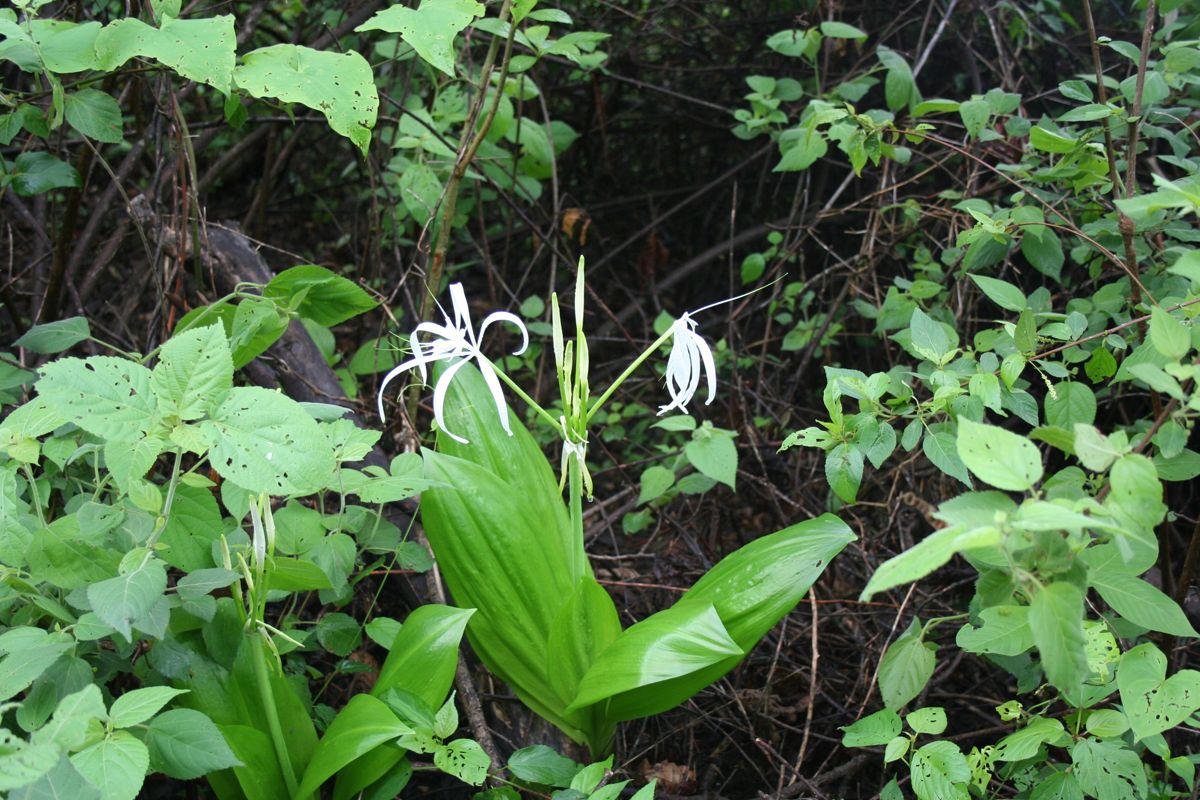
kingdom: Plantae
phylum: Tracheophyta
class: Liliopsida
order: Asparagales
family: Amaryllidaceae
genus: Hymenocallis
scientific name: Hymenocallis littoralis
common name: Beach spiderlily
